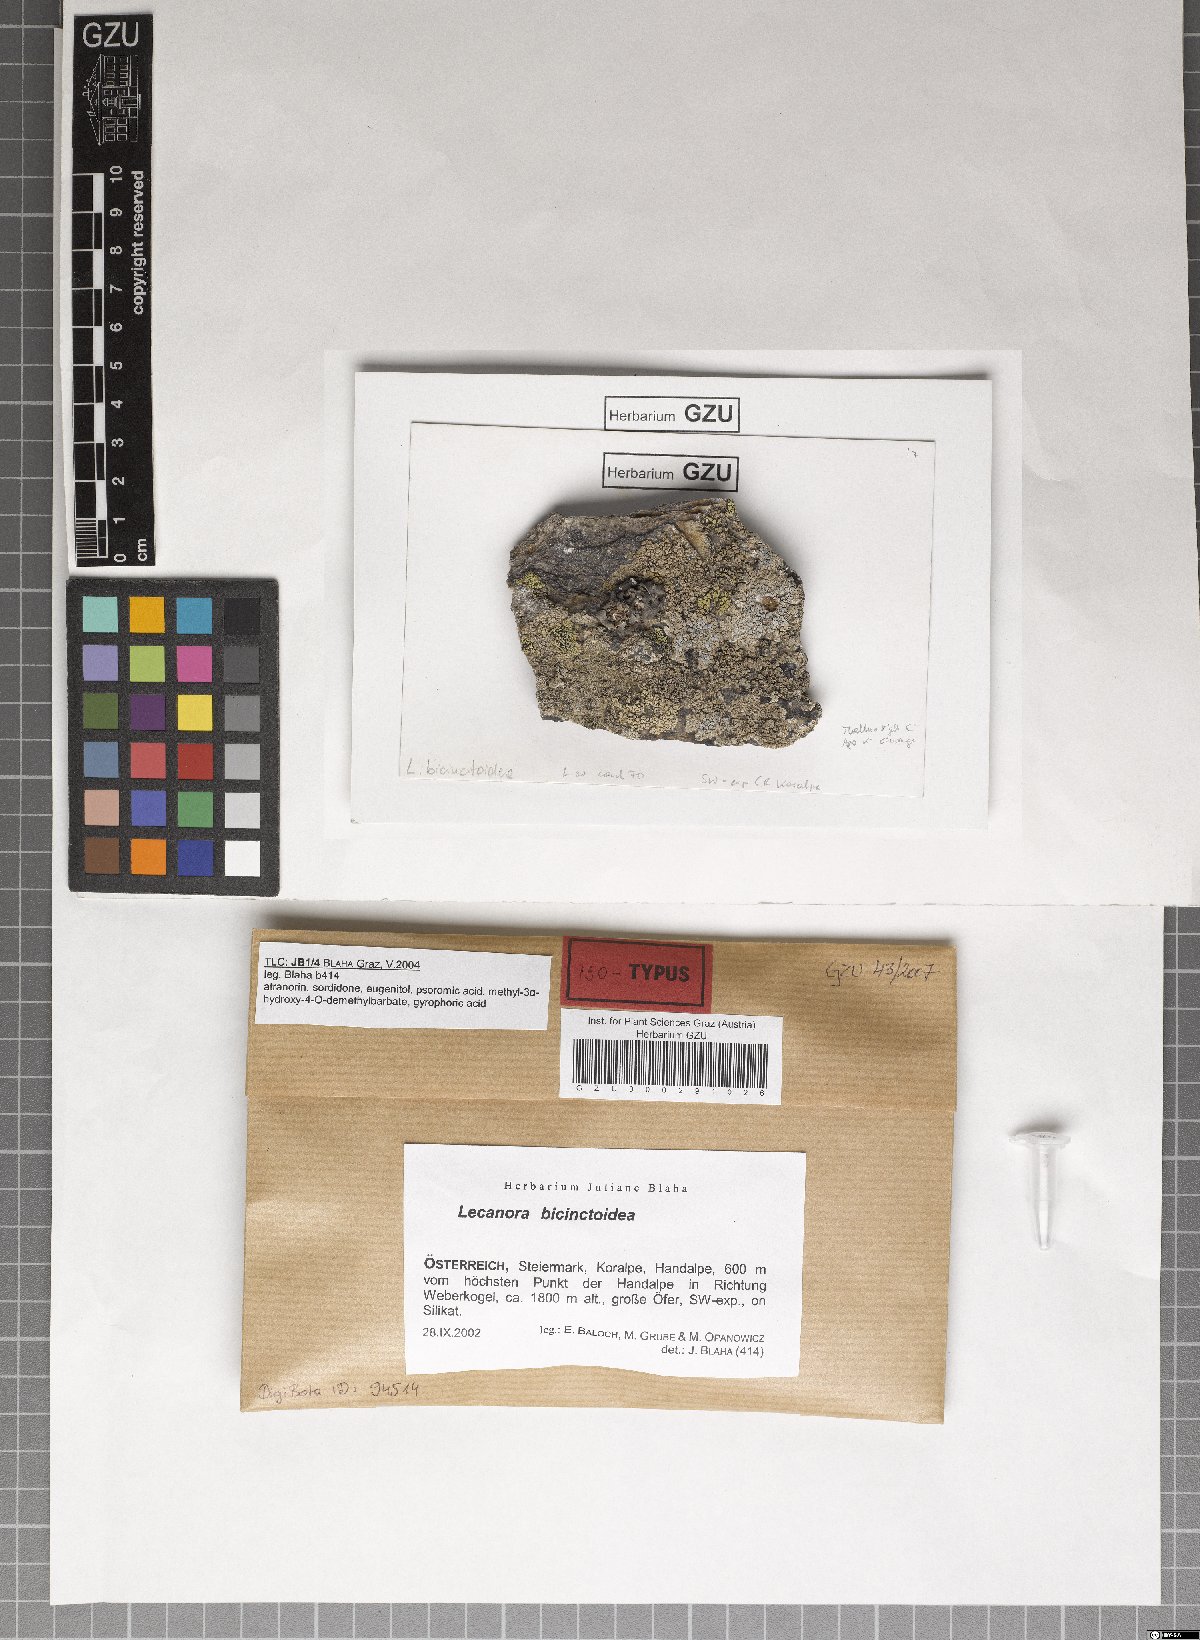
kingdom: Fungi
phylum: Ascomycota
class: Lecanoromycetes
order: Lecanorales
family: Lecanoraceae
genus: Lecanora
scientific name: Lecanora bicinctoidea
